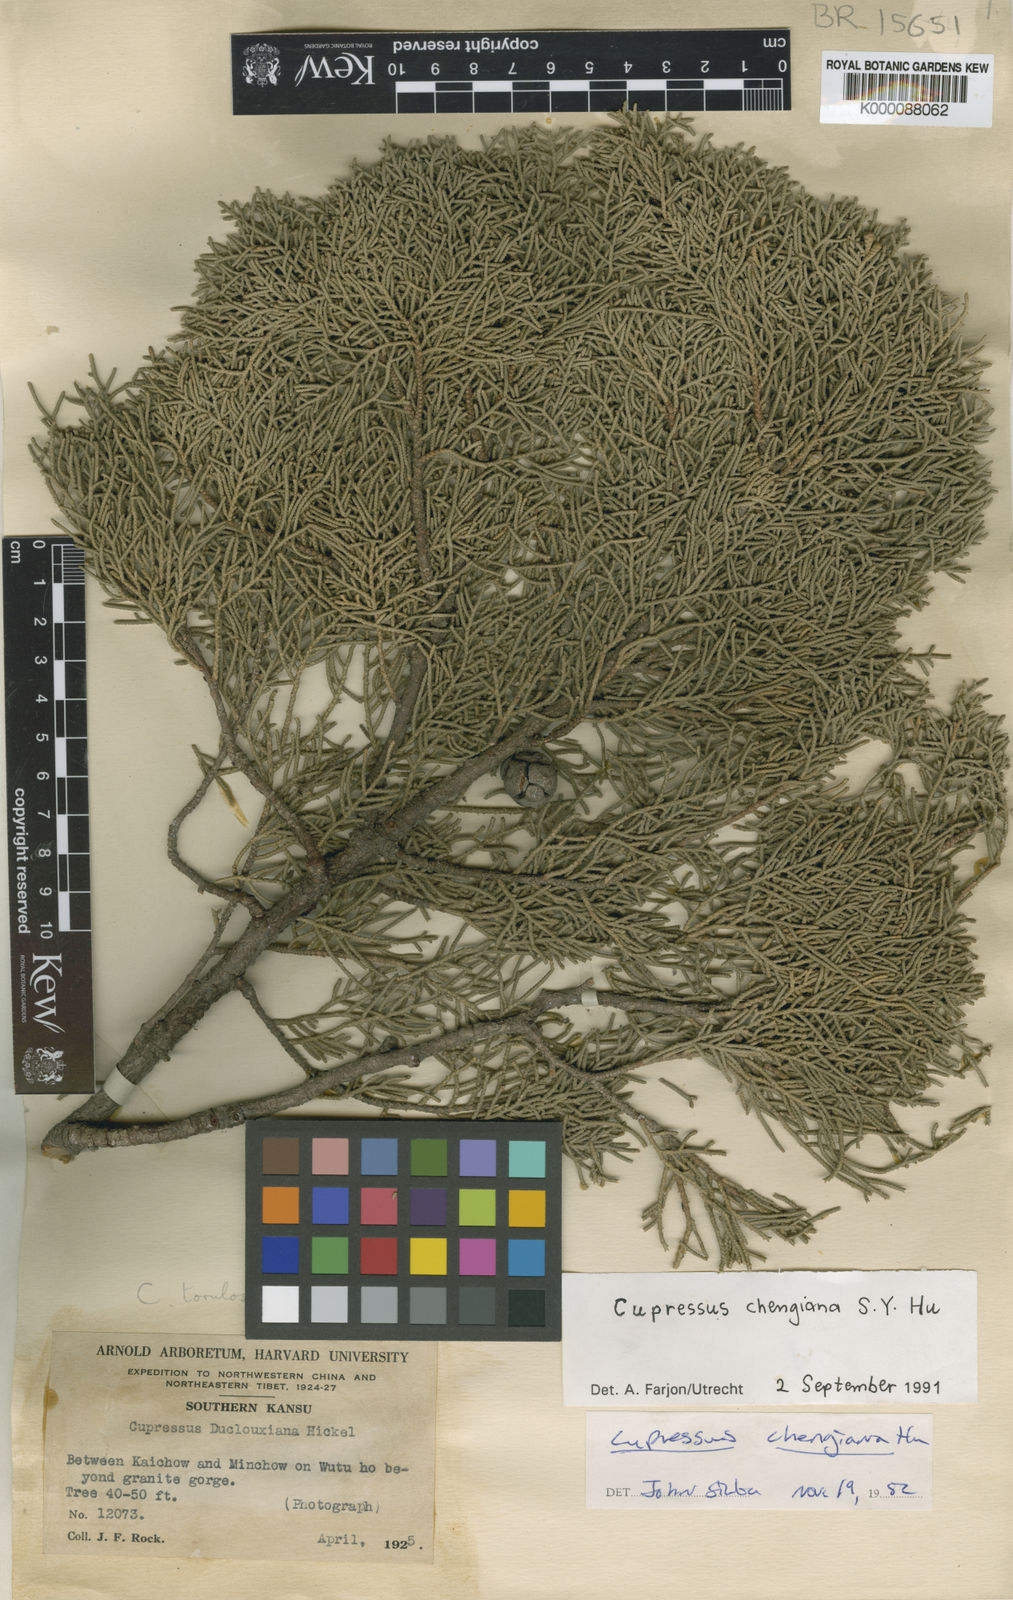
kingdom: Plantae
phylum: Tracheophyta
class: Pinopsida
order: Pinales
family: Cupressaceae
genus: Cupressus
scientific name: Cupressus chengiana
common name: Cheng cypress
